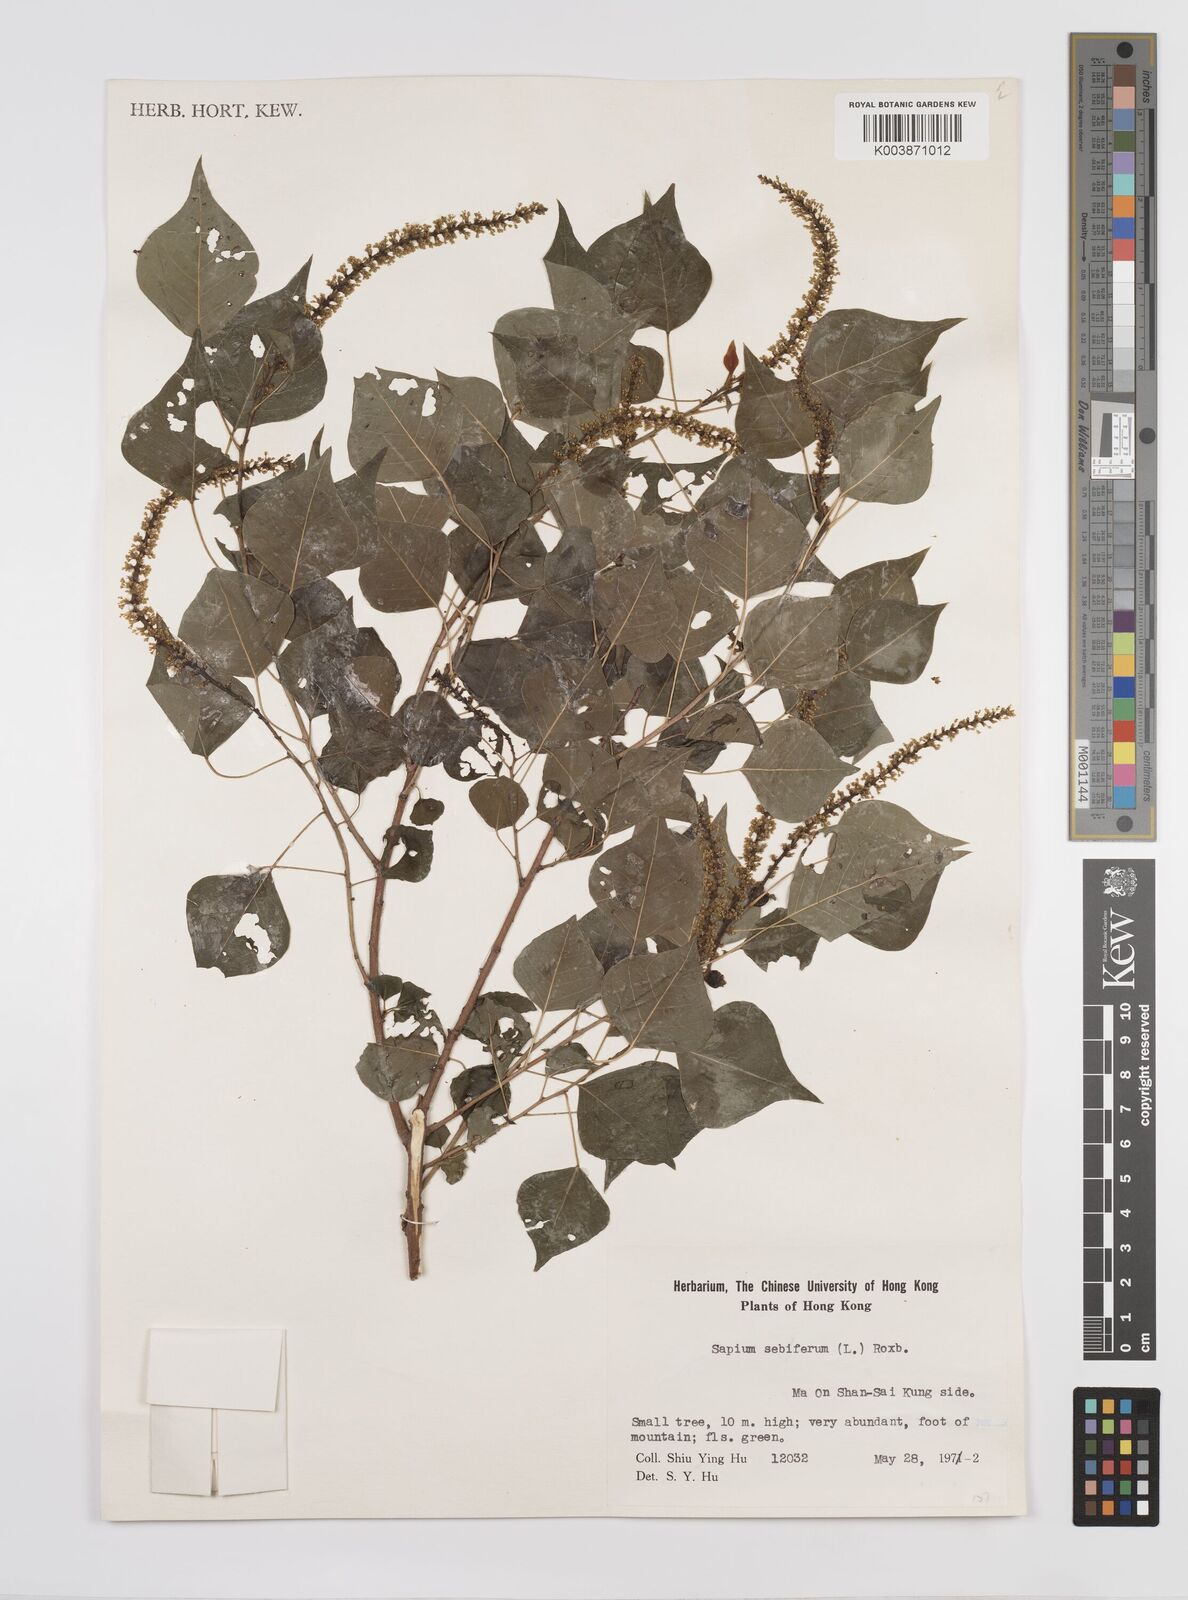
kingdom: Plantae
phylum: Tracheophyta
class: Magnoliopsida
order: Malpighiales
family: Euphorbiaceae
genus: Triadica
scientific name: Triadica sebifera
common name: Chinese tallow
